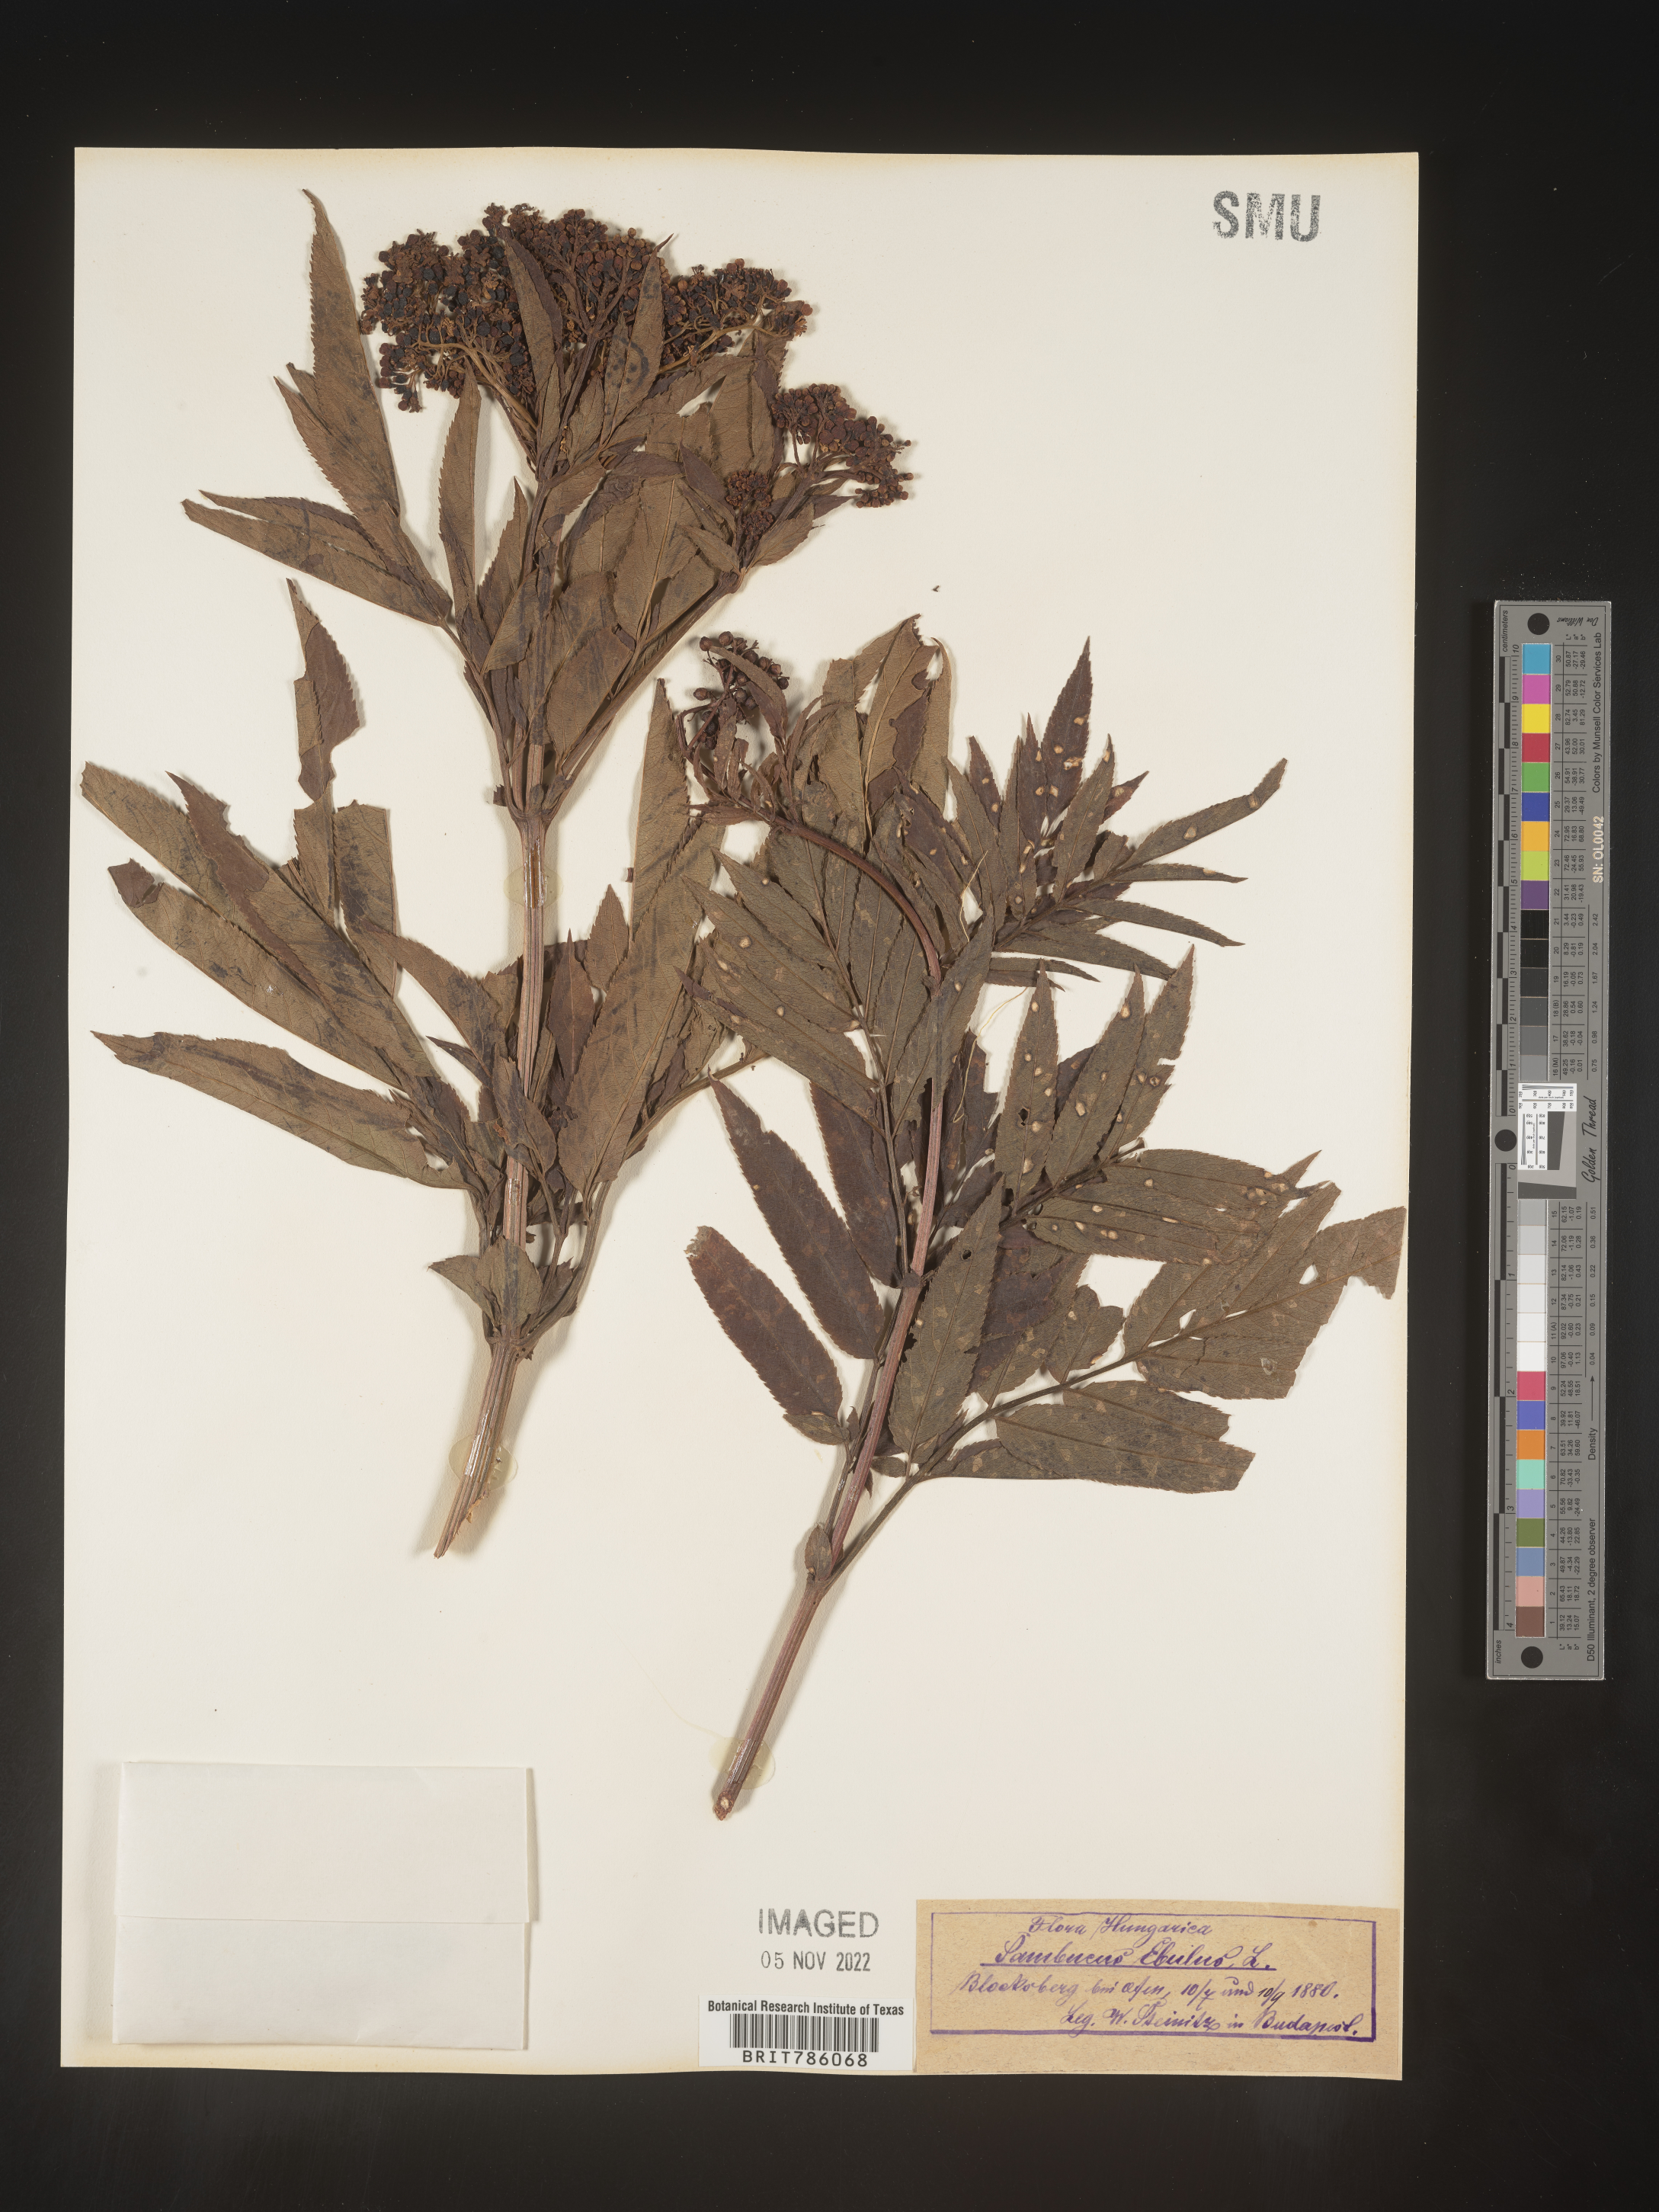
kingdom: Plantae
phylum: Tracheophyta
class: Magnoliopsida
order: Dipsacales
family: Viburnaceae
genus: Sambucus
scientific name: Sambucus
